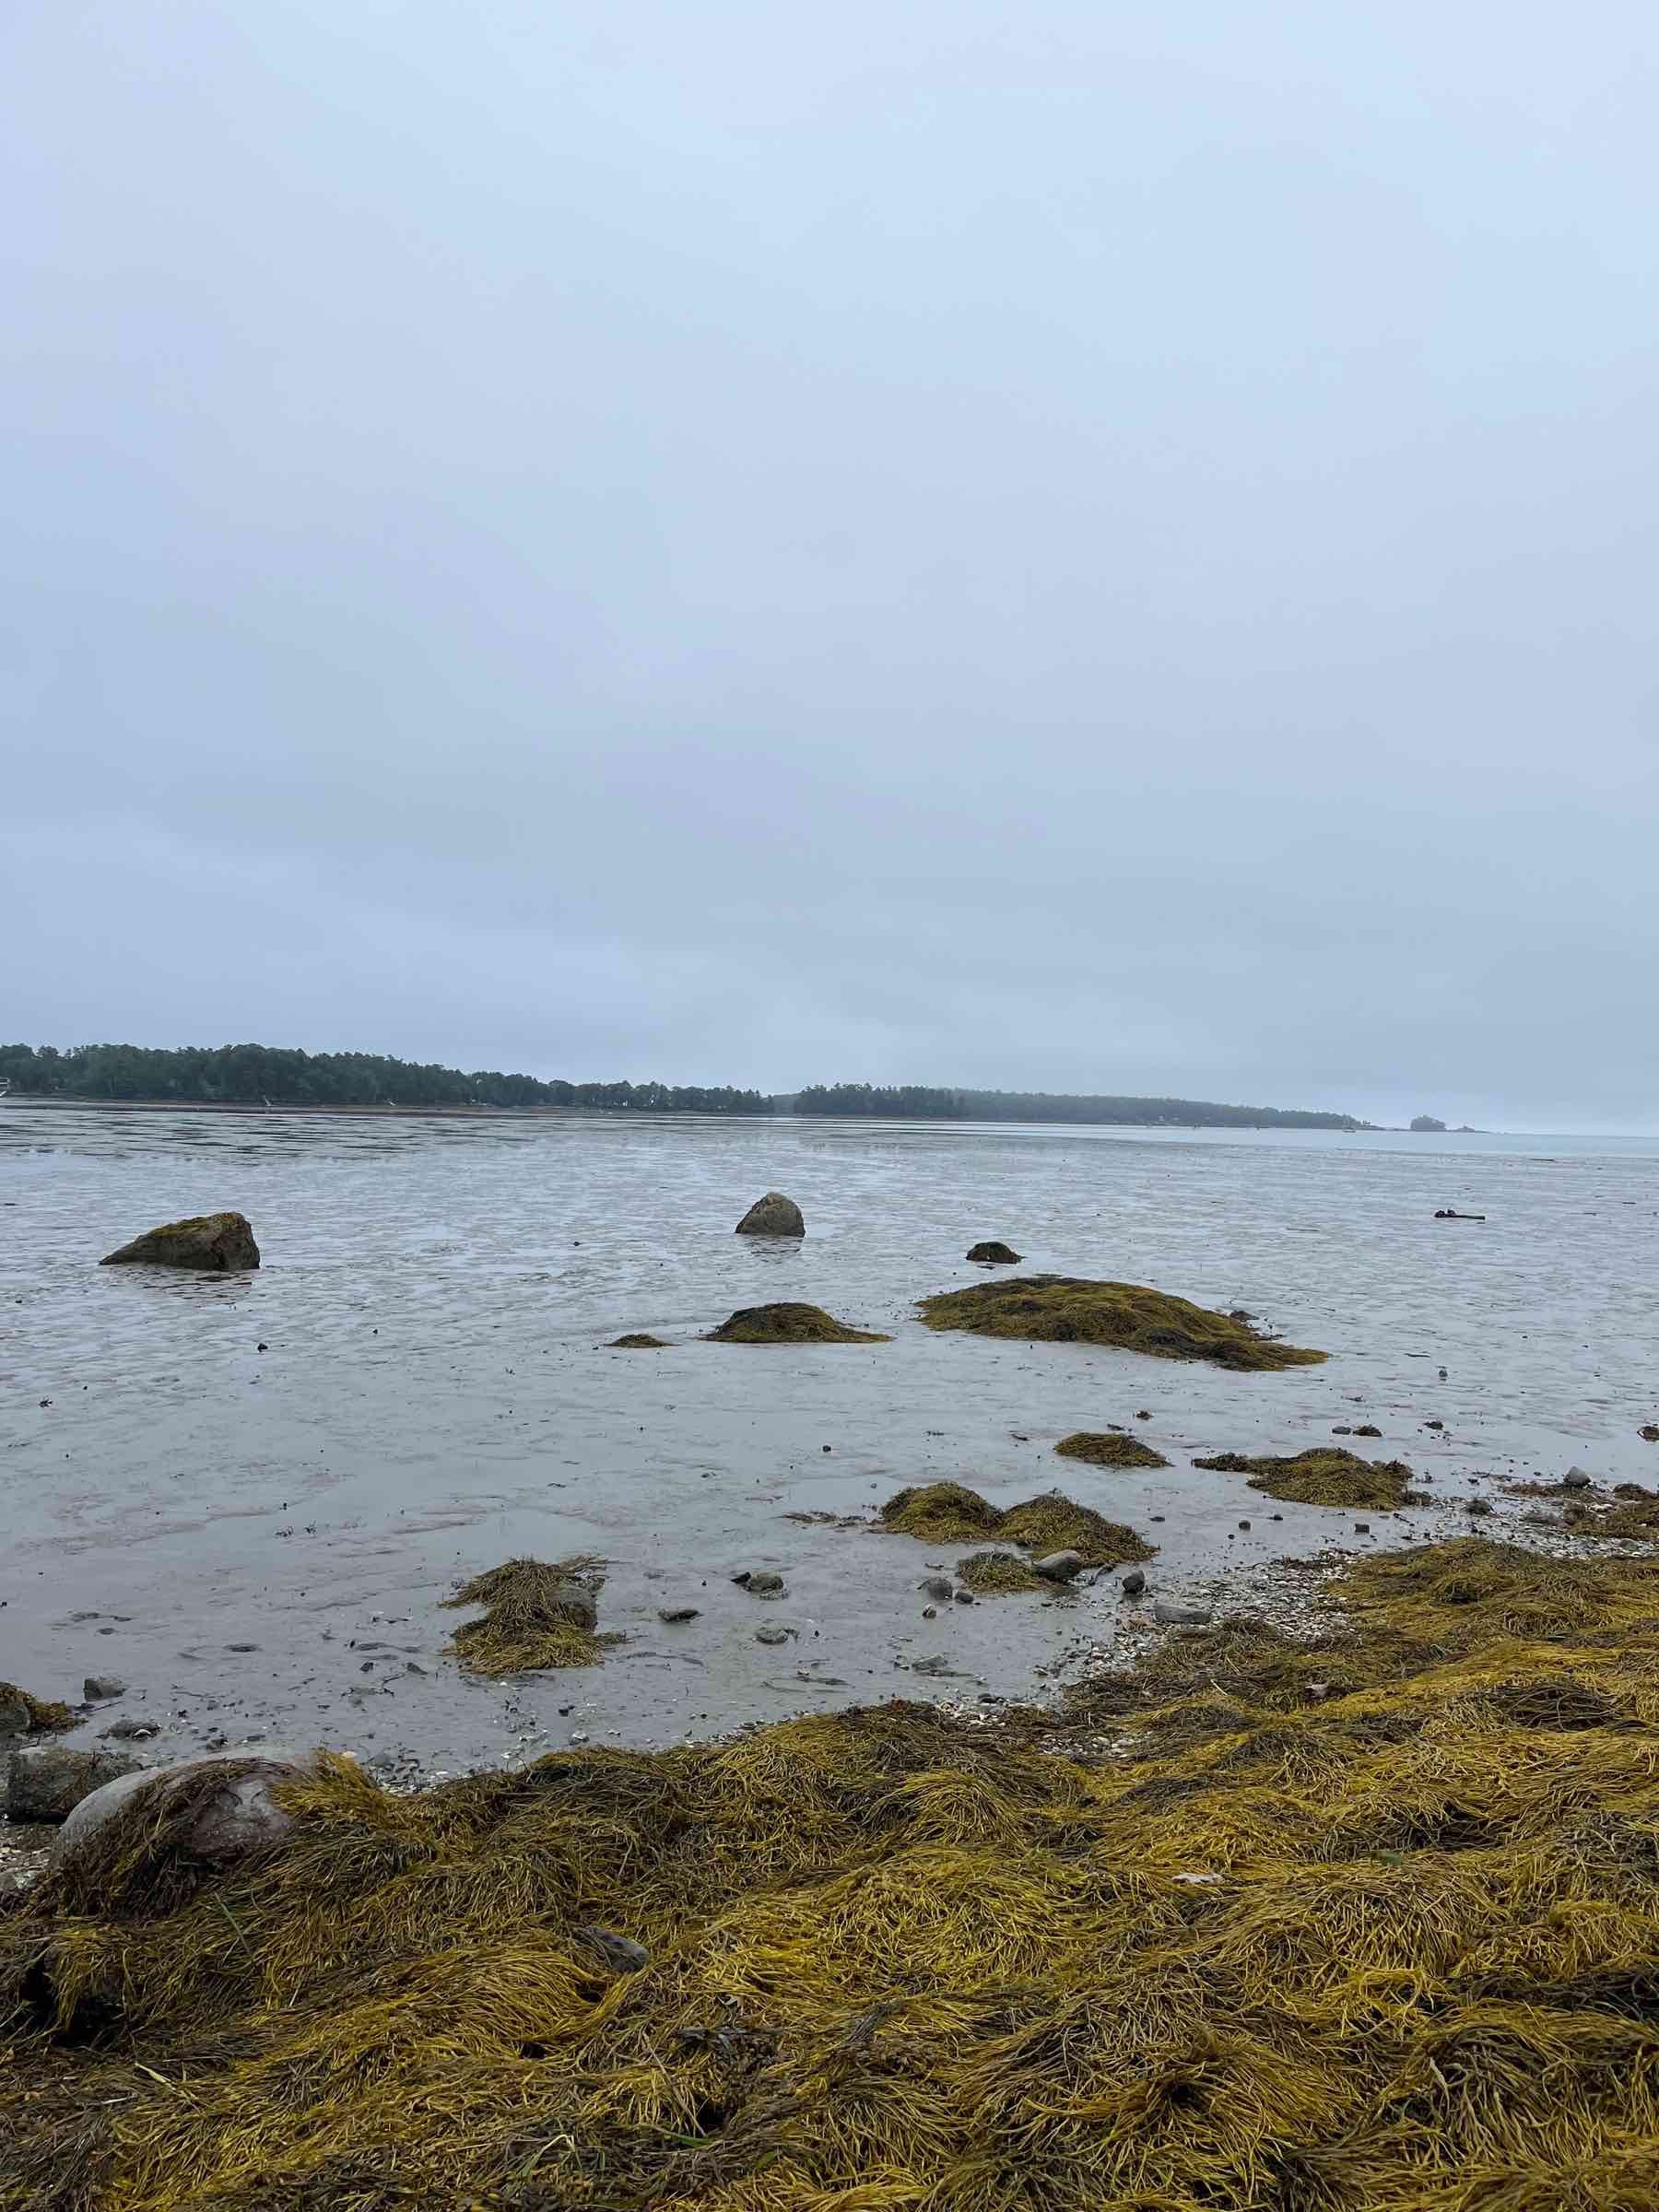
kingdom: Chromista
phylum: Ochrophyta
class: Phaeophyceae
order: Fucales
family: Fucaceae
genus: Ascophyllum
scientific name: Ascophyllum nodosum
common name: Rockweed
